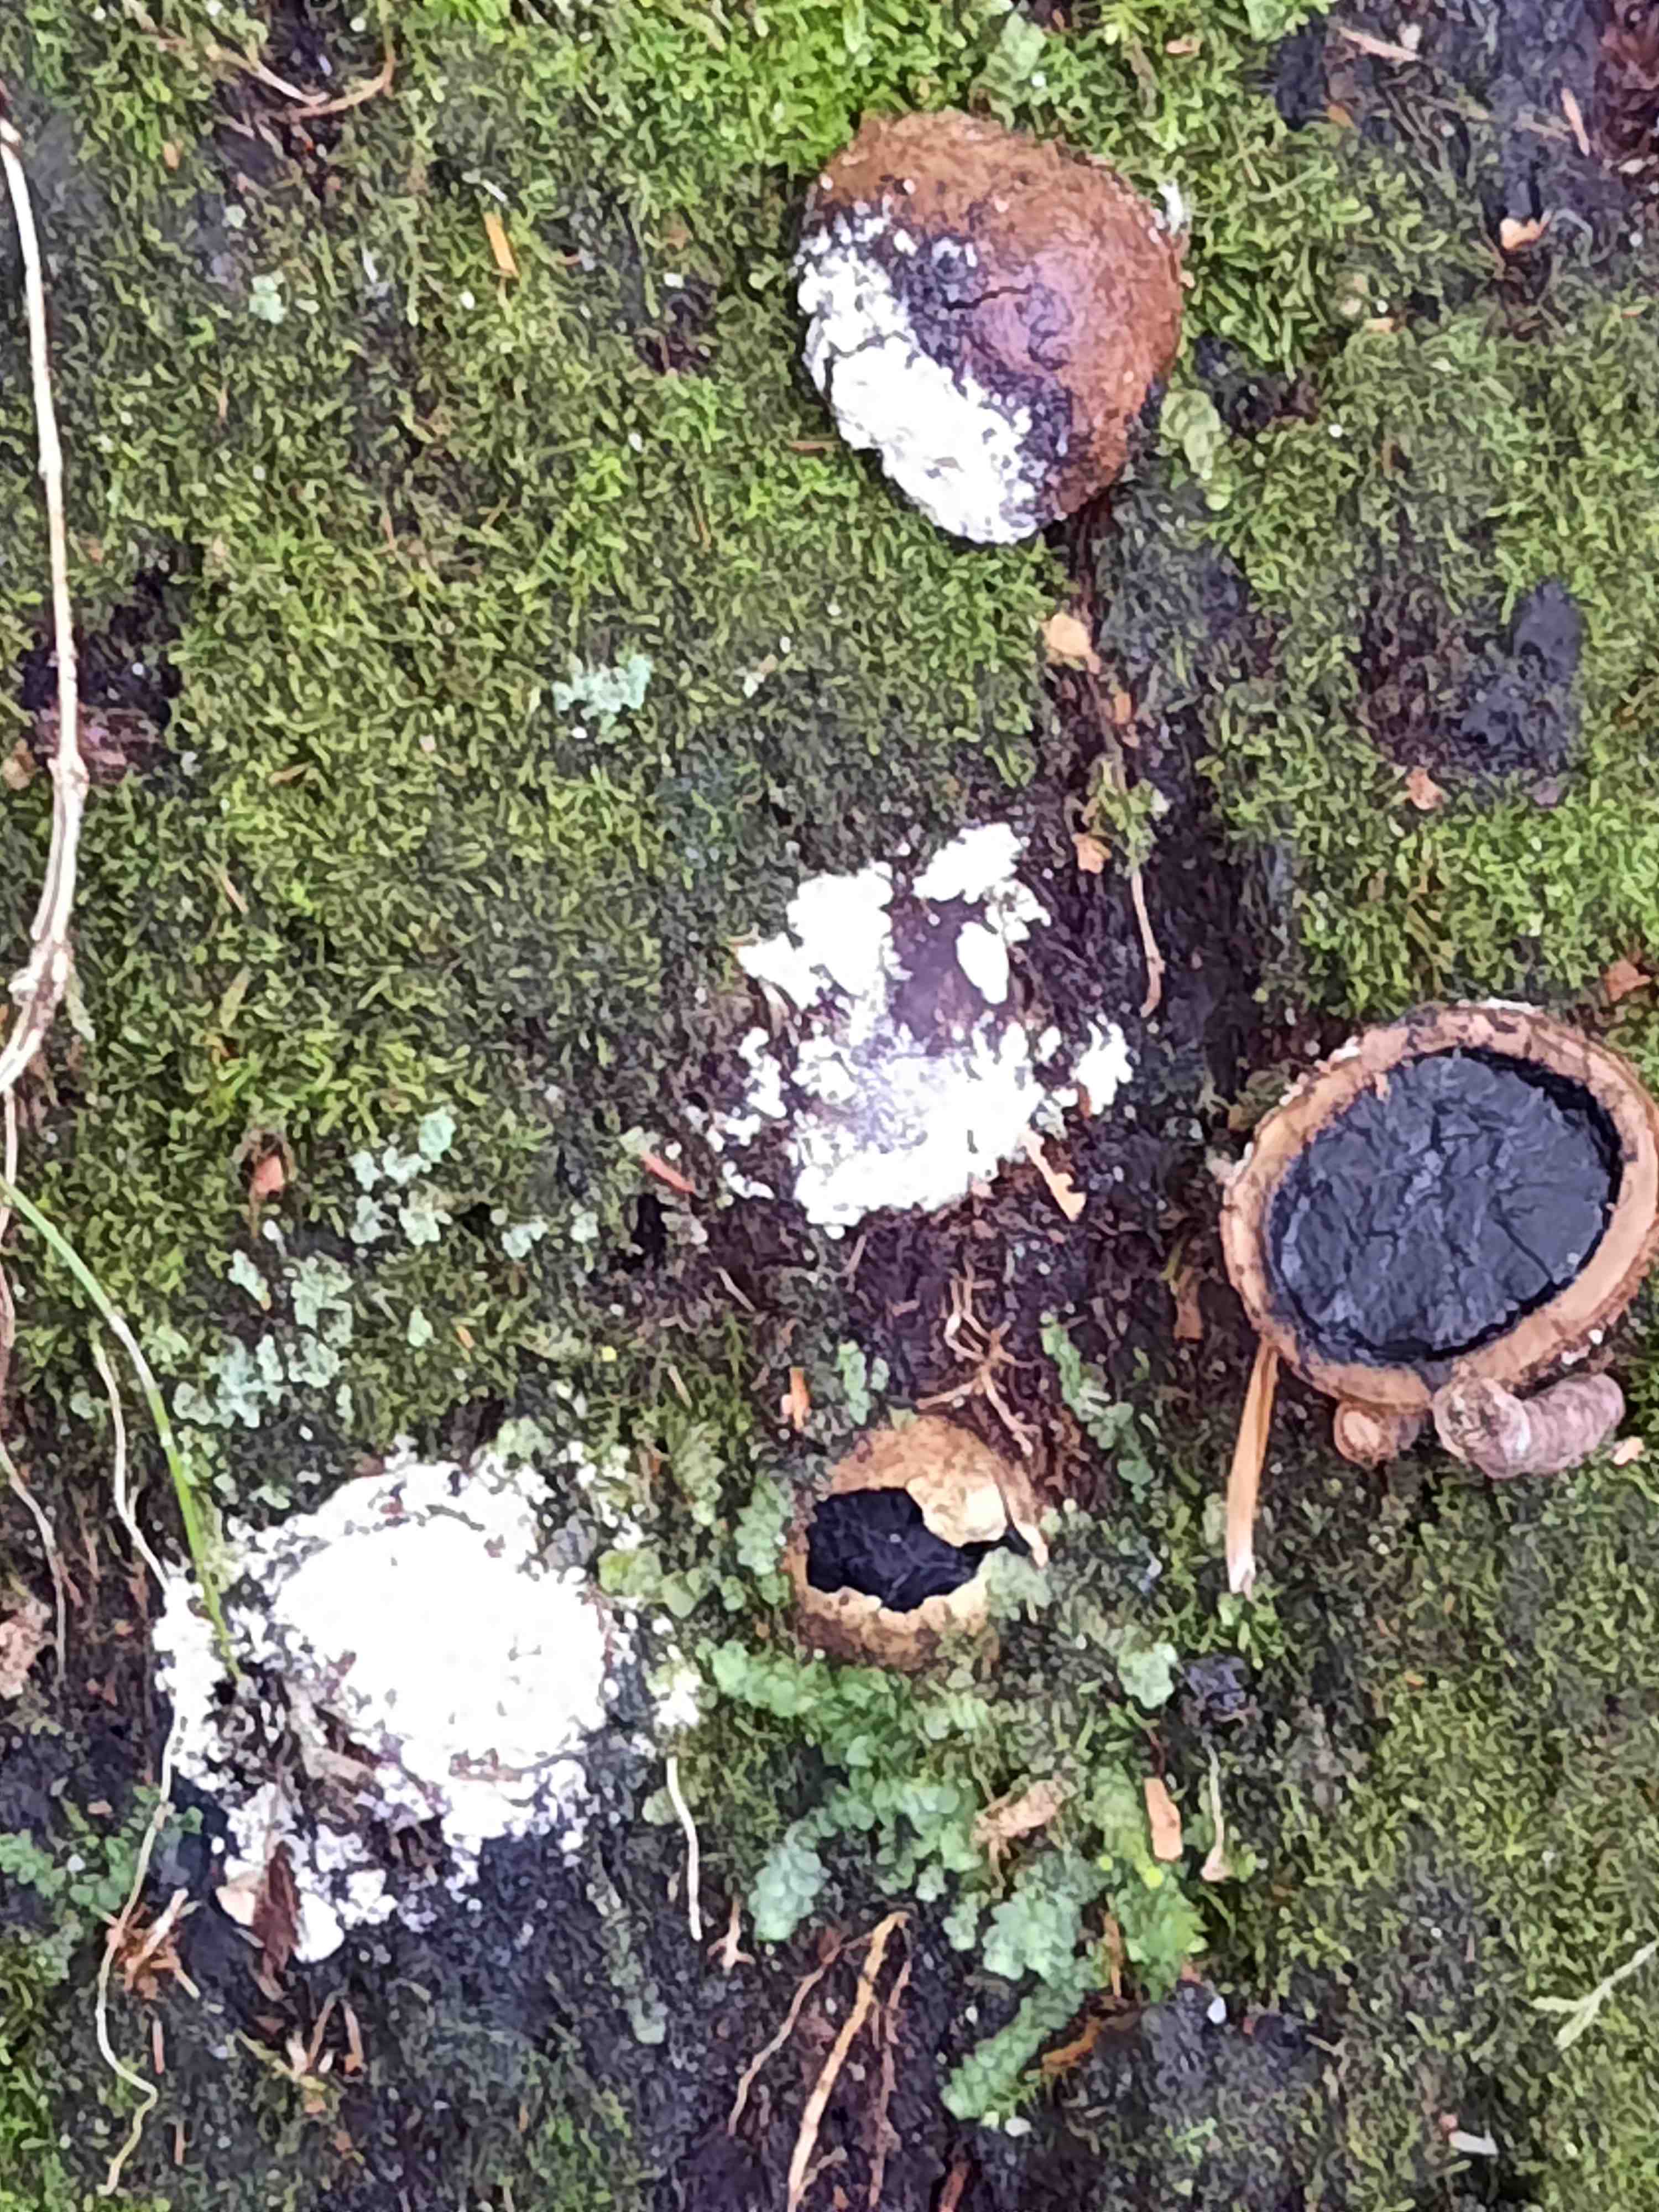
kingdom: Fungi
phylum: Ascomycota
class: Eurotiomycetes
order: Eurotiales
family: Elaphomycetaceae
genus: Elaphomyces
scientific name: Elaphomyces asperulus
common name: vinrød hjortetrøffel
